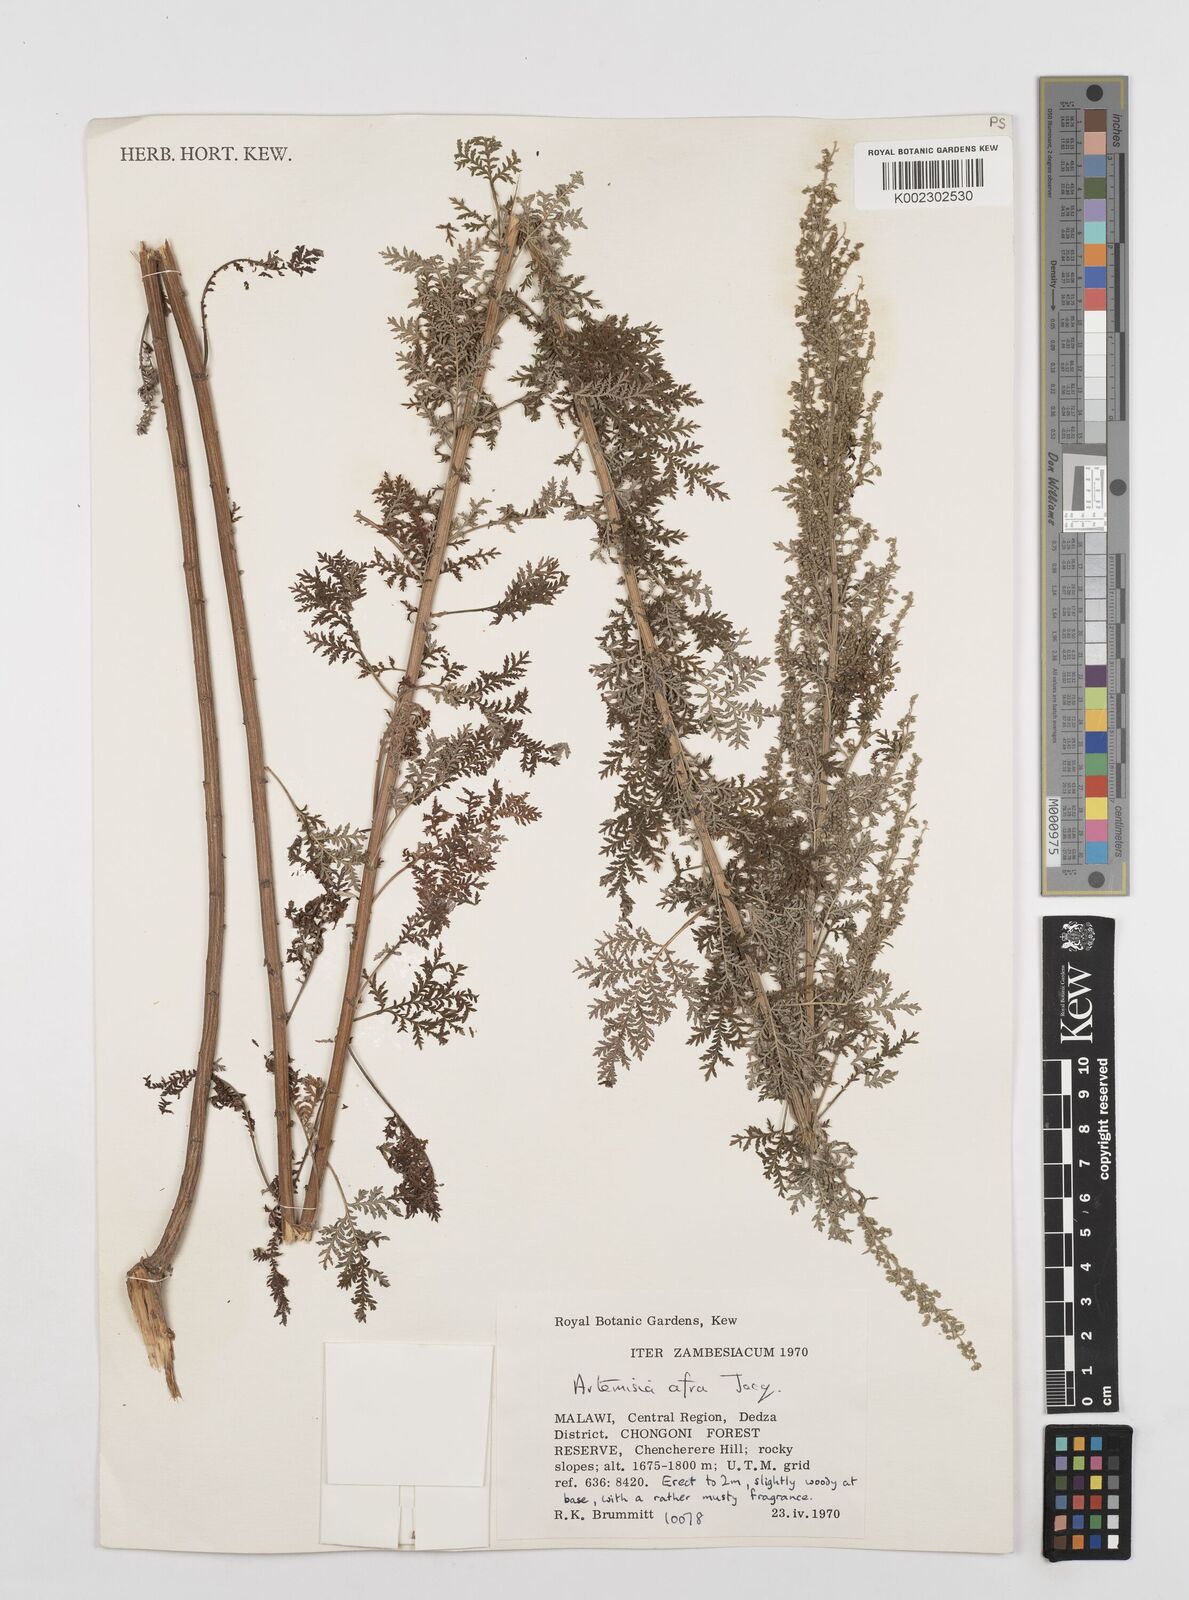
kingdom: Plantae
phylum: Tracheophyta
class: Magnoliopsida
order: Asterales
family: Asteraceae
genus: Artemisia
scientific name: Artemisia afra
